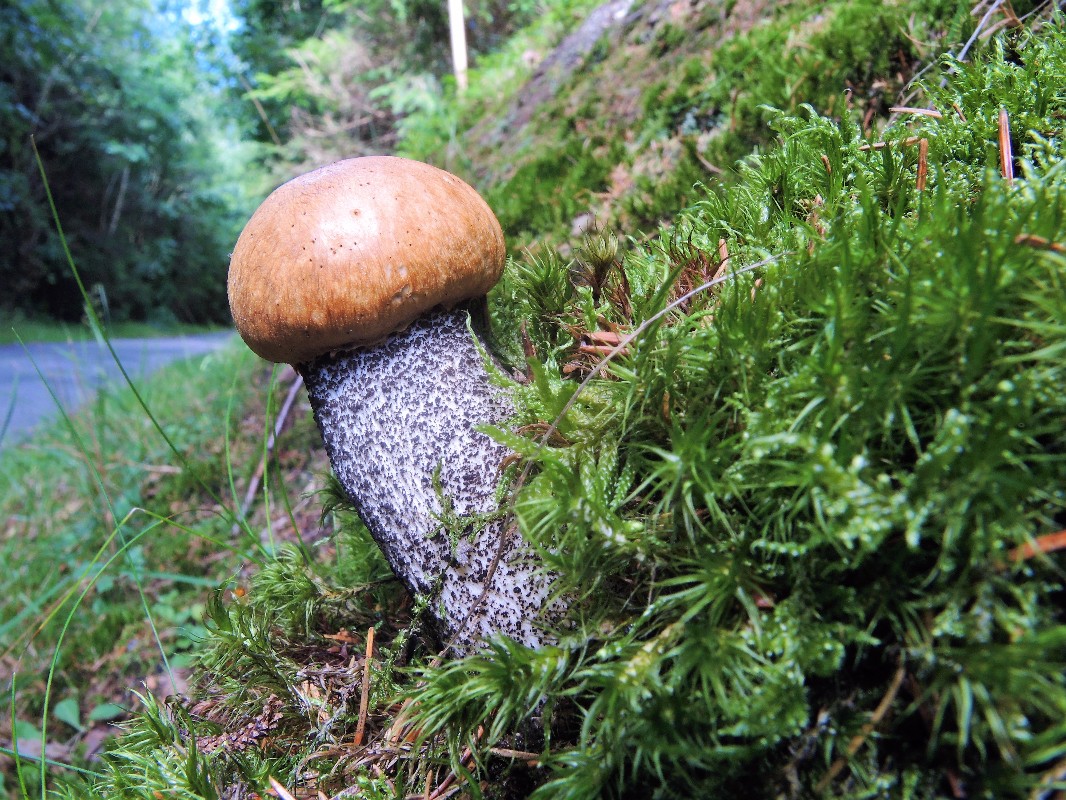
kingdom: Fungi
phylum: Basidiomycota
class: Agaricomycetes
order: Boletales
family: Boletaceae
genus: Leccinum
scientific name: Leccinum versipelle
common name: orange skælrørhat
